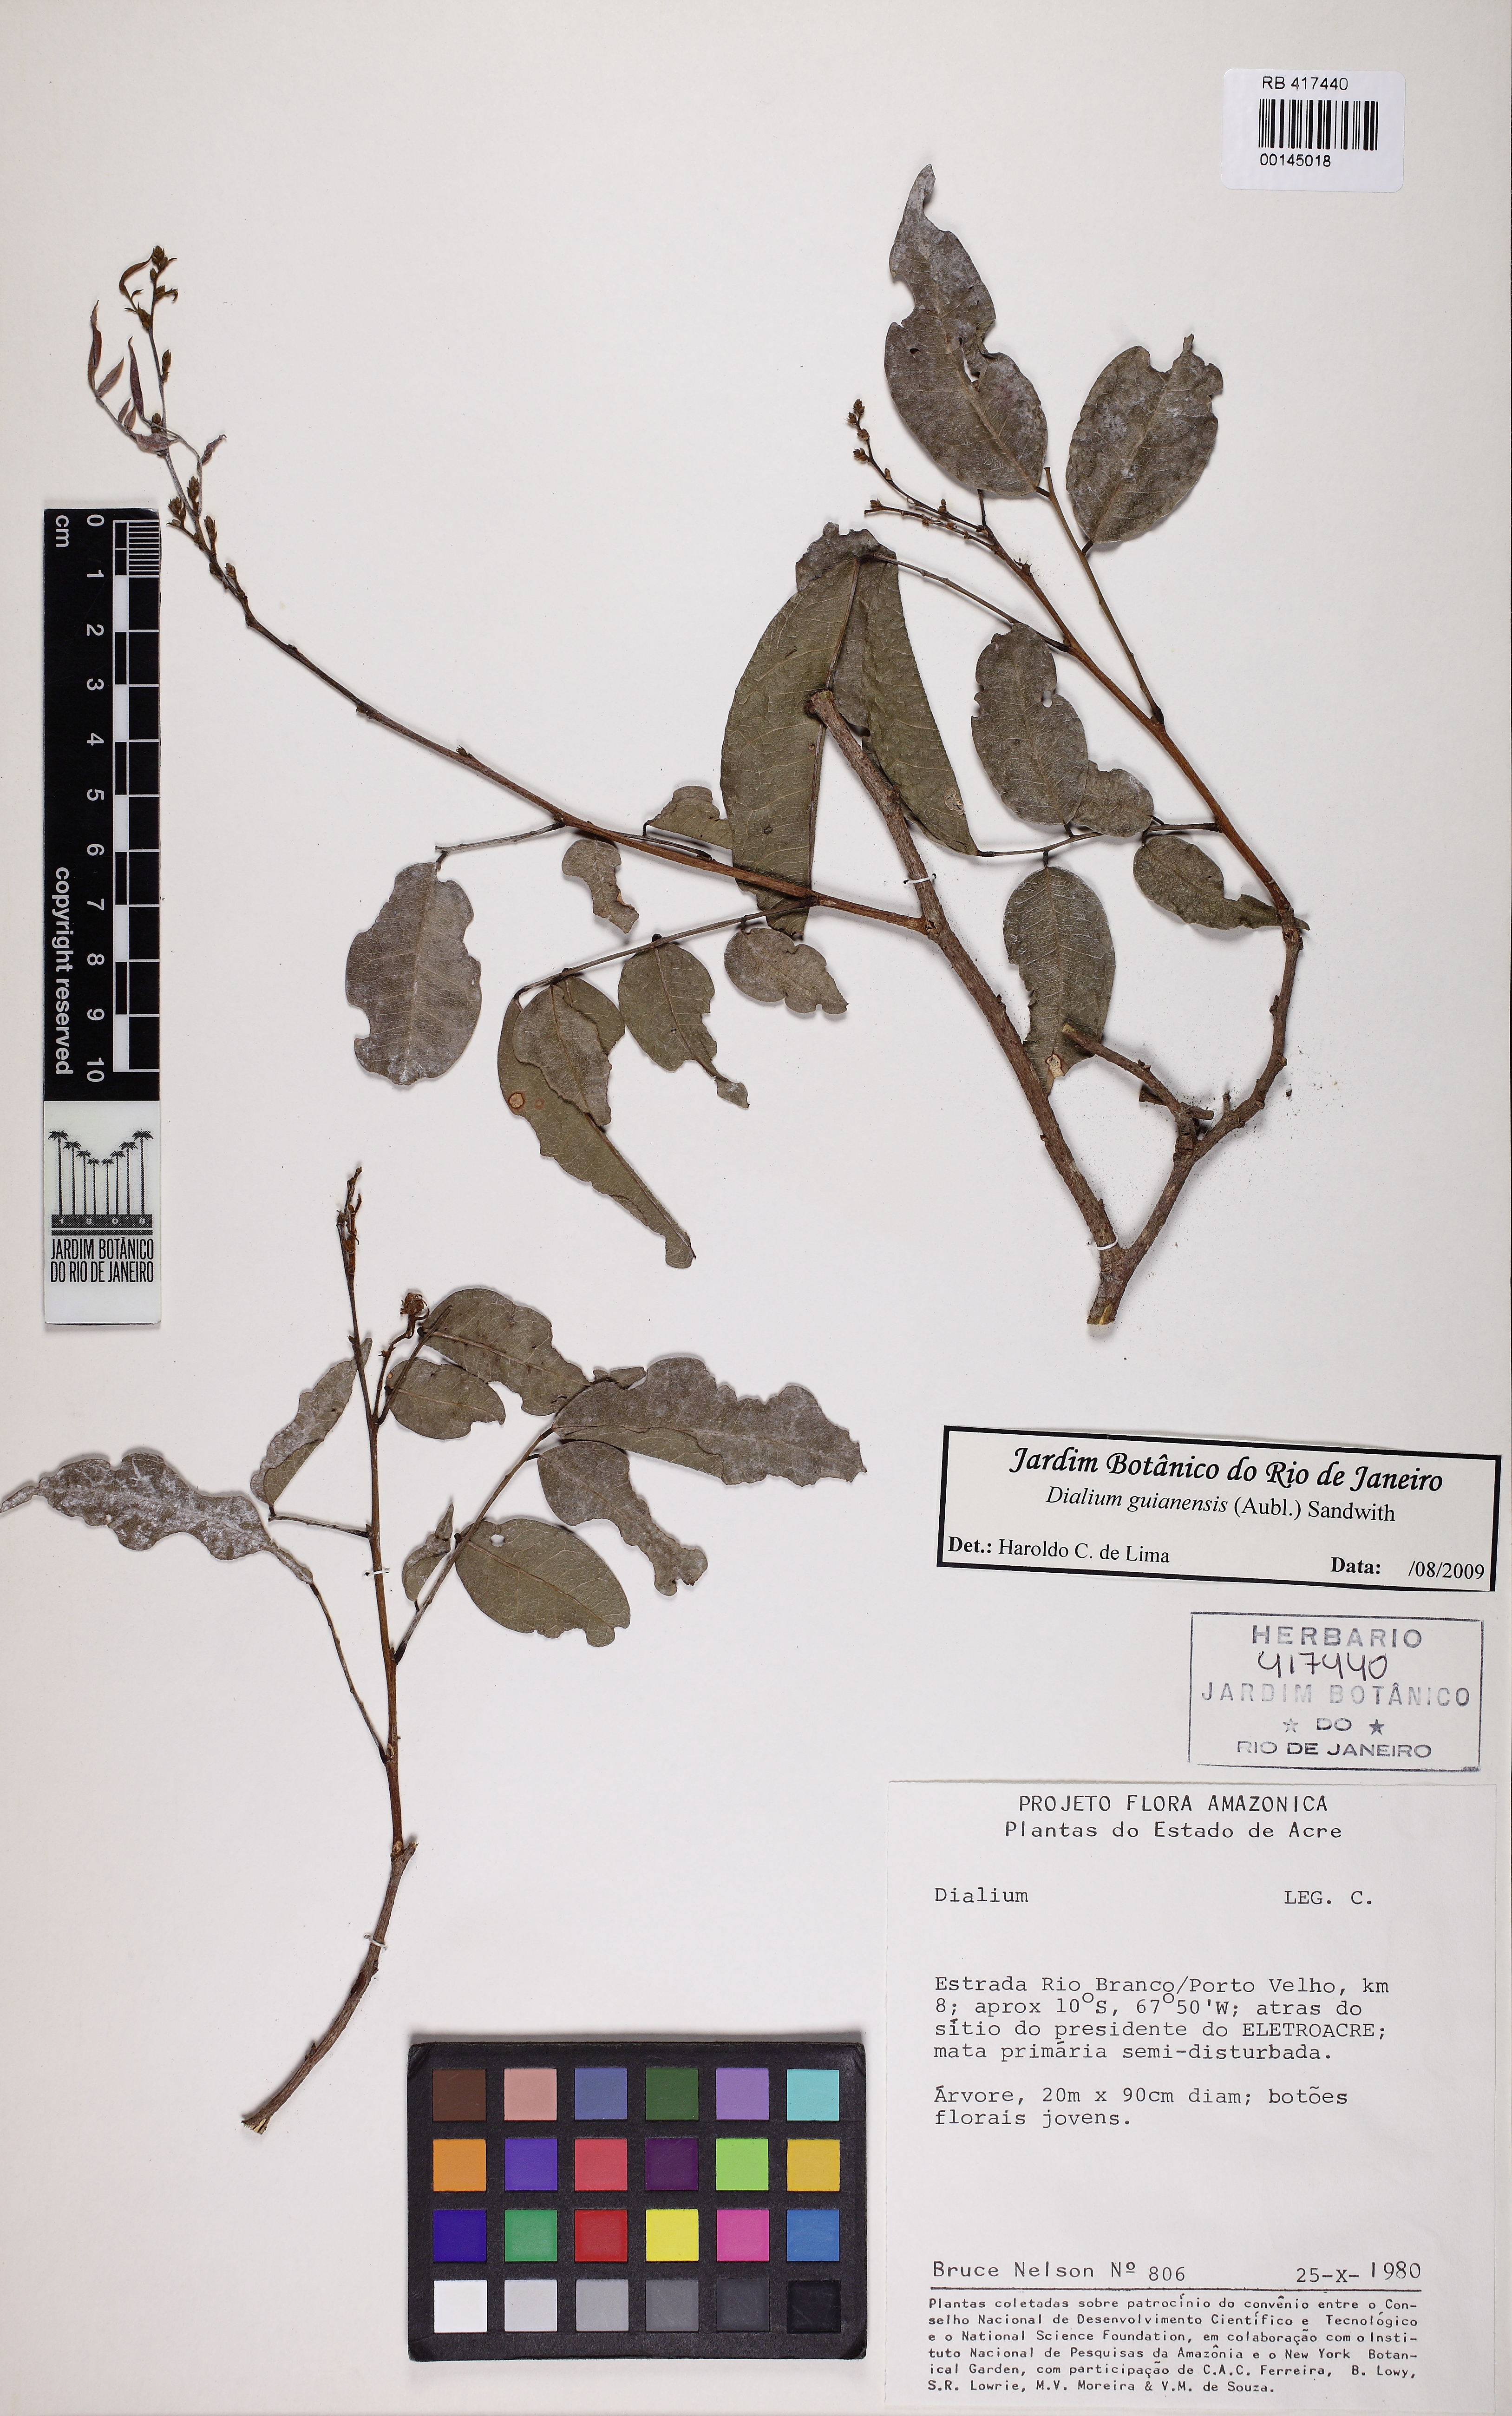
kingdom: Plantae
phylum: Tracheophyta
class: Magnoliopsida
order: Fabales
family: Fabaceae
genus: Dialium
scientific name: Dialium guianense
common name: Ironwood
